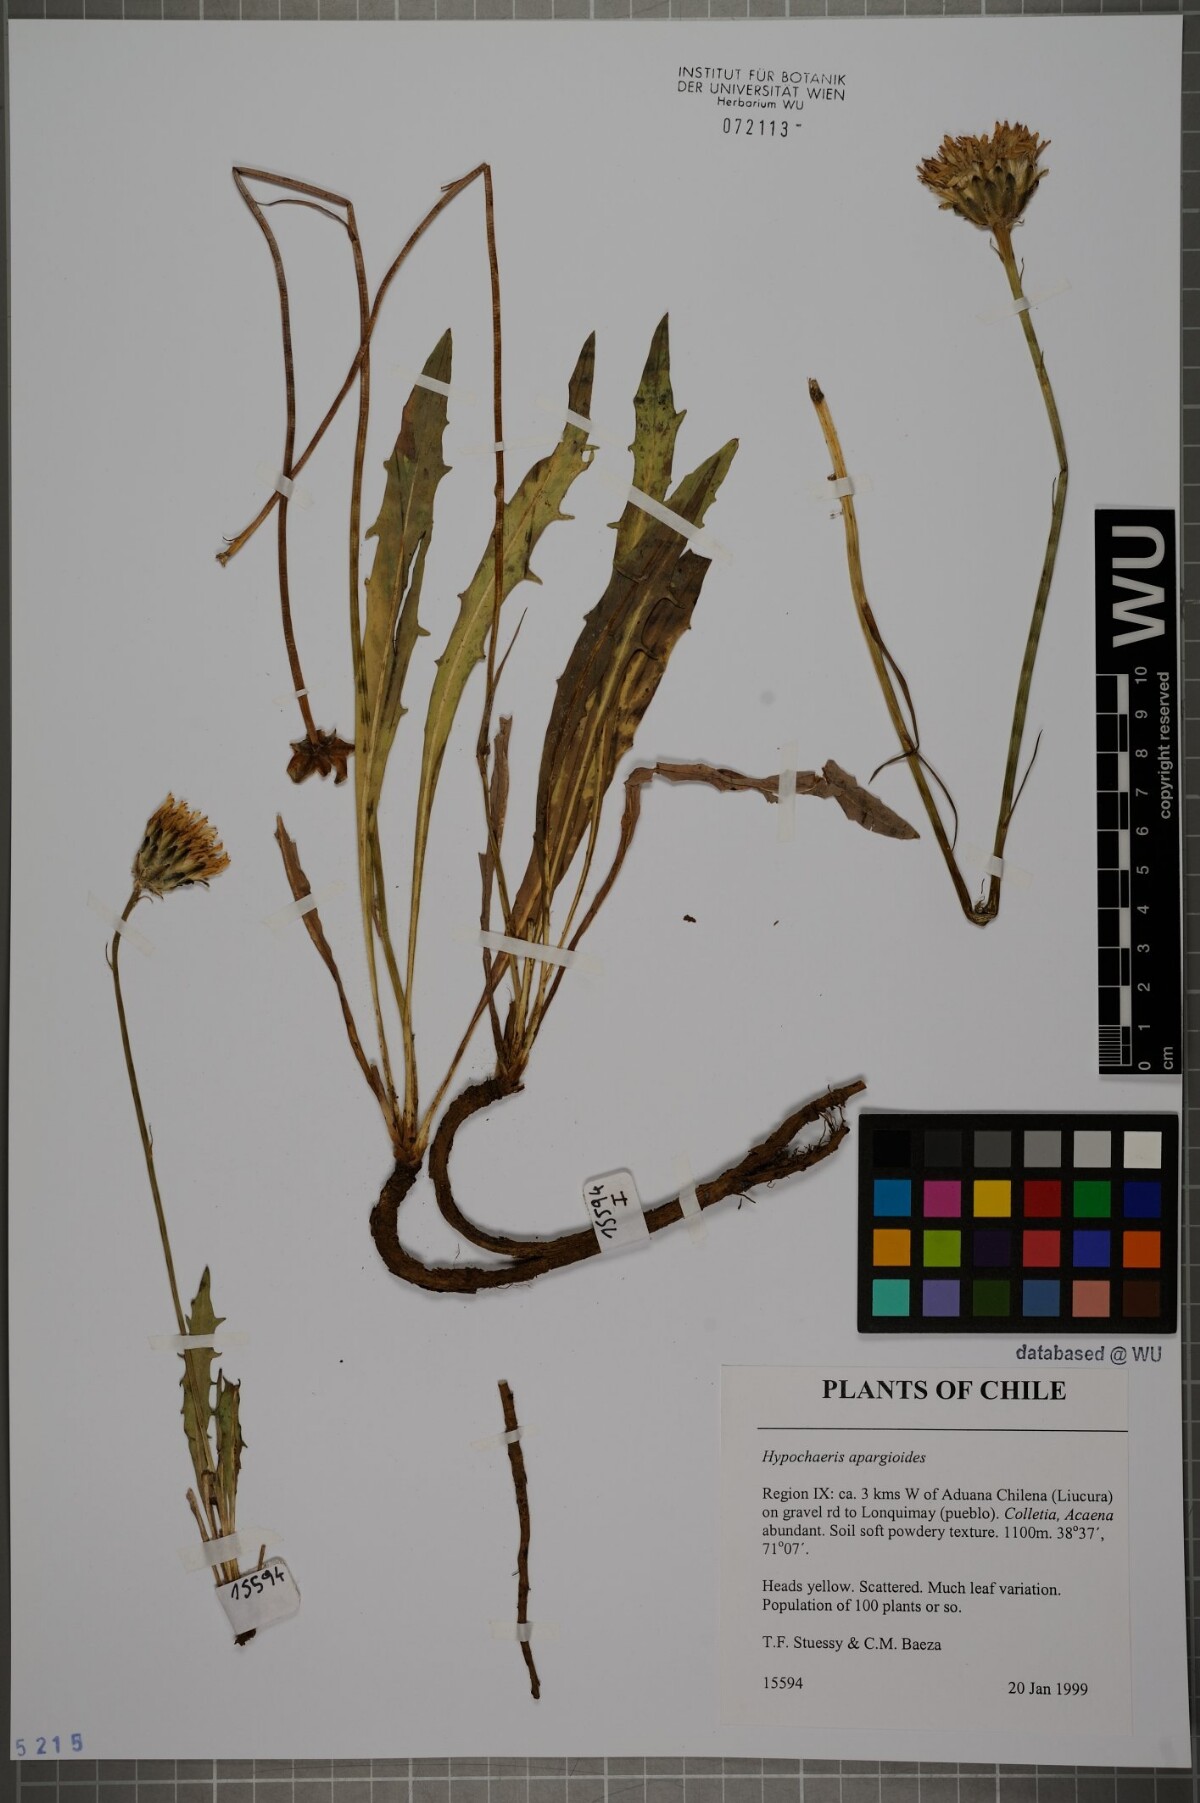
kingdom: Plantae
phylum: Tracheophyta
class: Magnoliopsida
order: Asterales
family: Asteraceae
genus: Hypochaeris
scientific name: Hypochaeris apargioides
